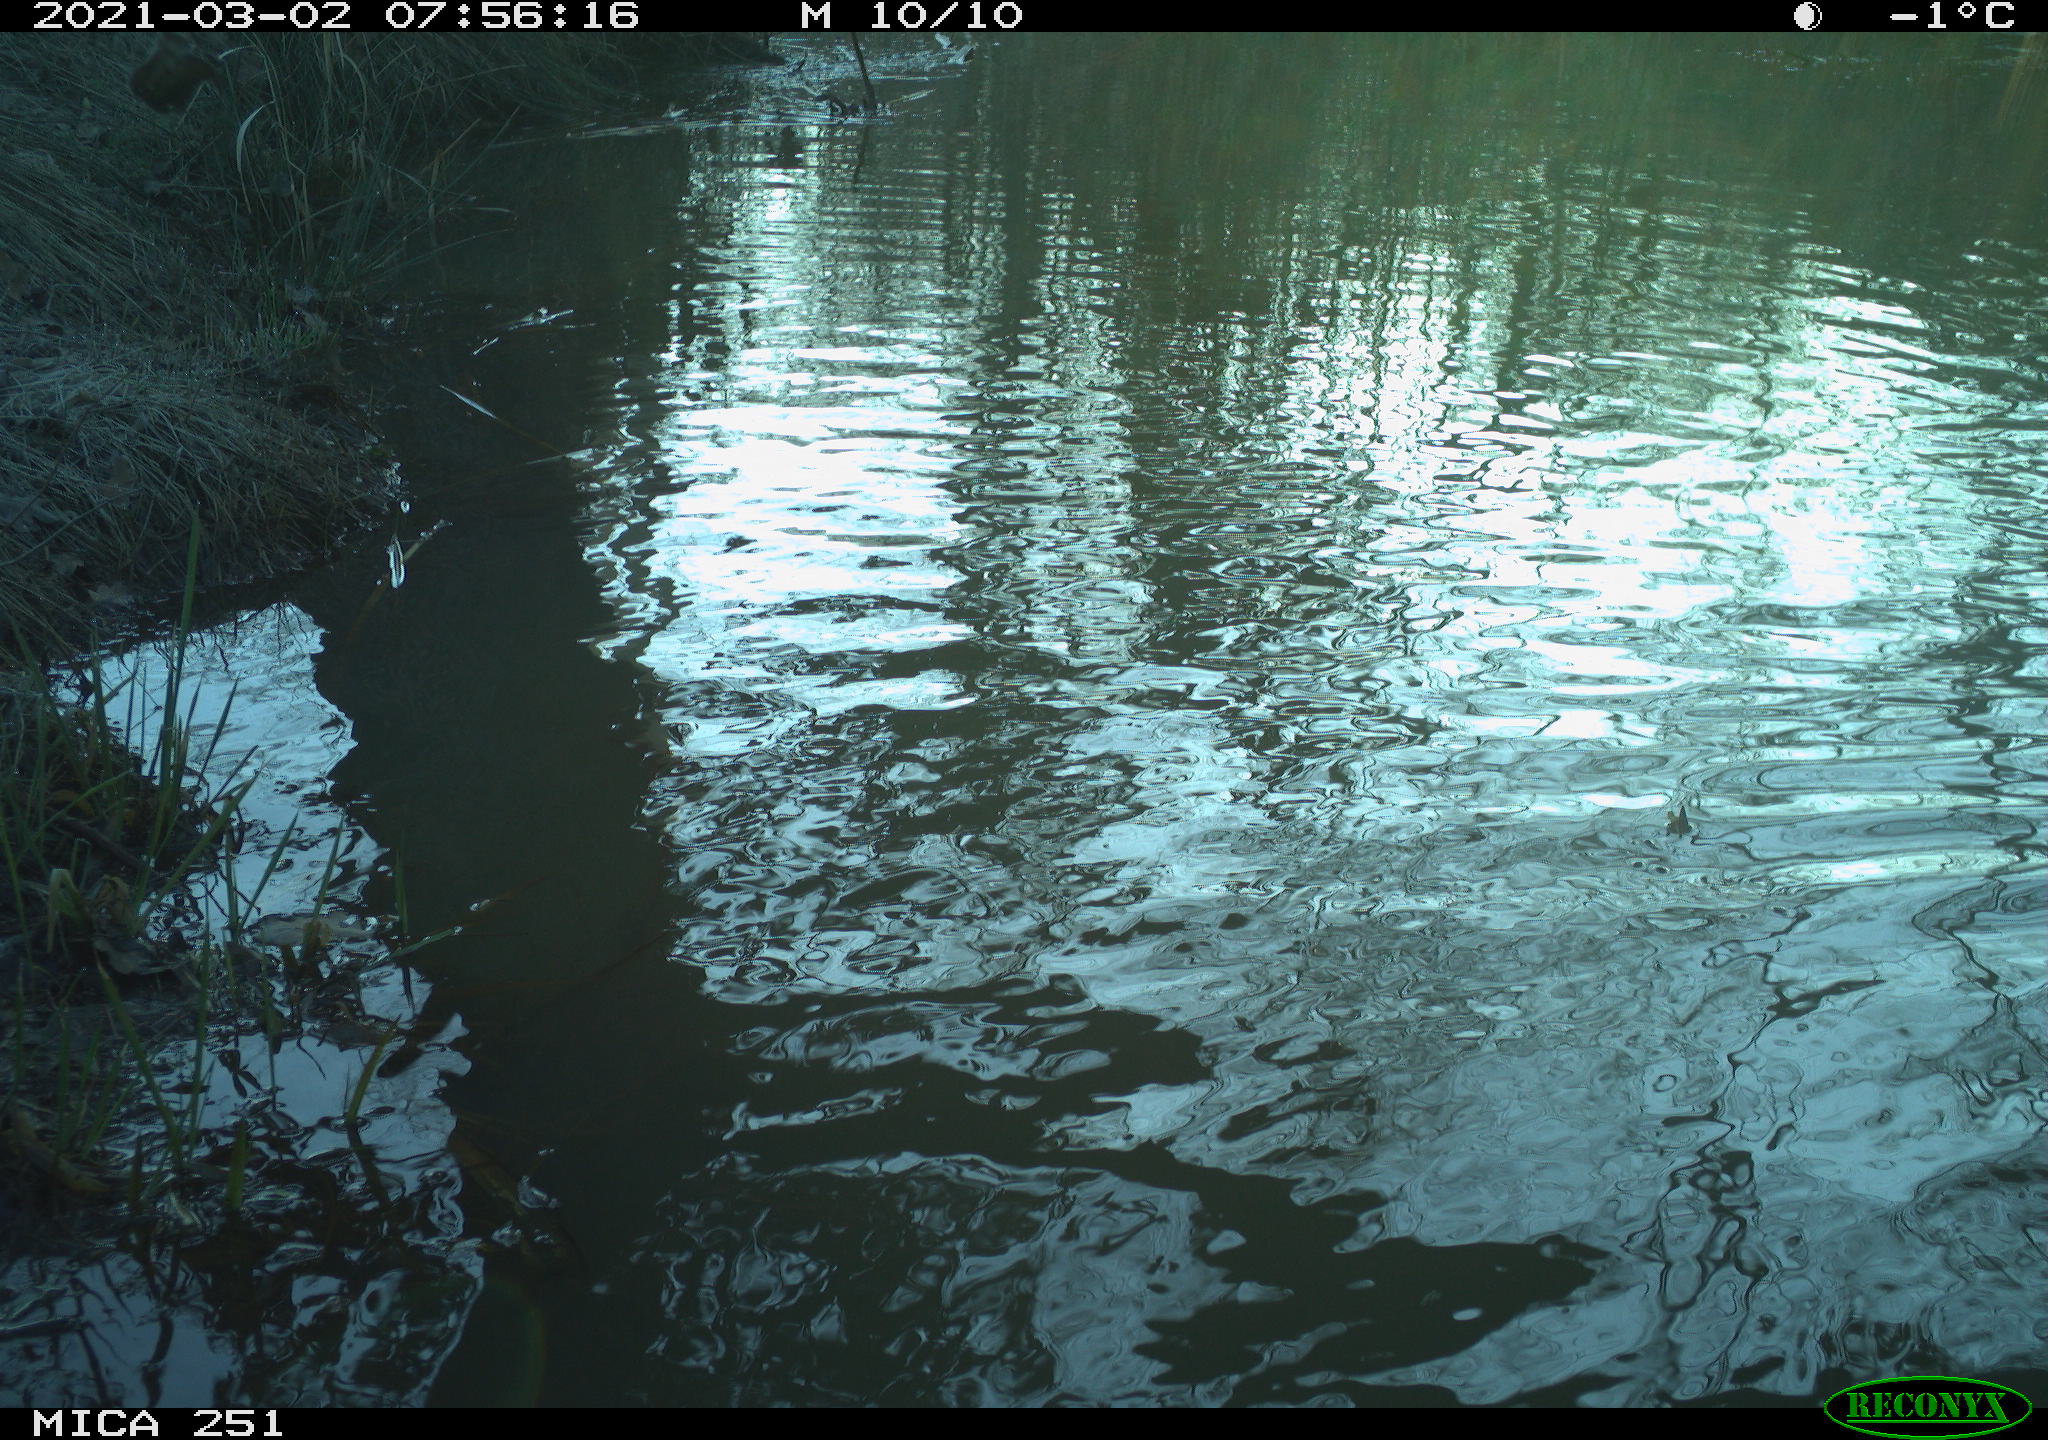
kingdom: Animalia
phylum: Chordata
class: Aves
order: Gruiformes
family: Rallidae
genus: Fulica
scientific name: Fulica atra
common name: Eurasian coot
